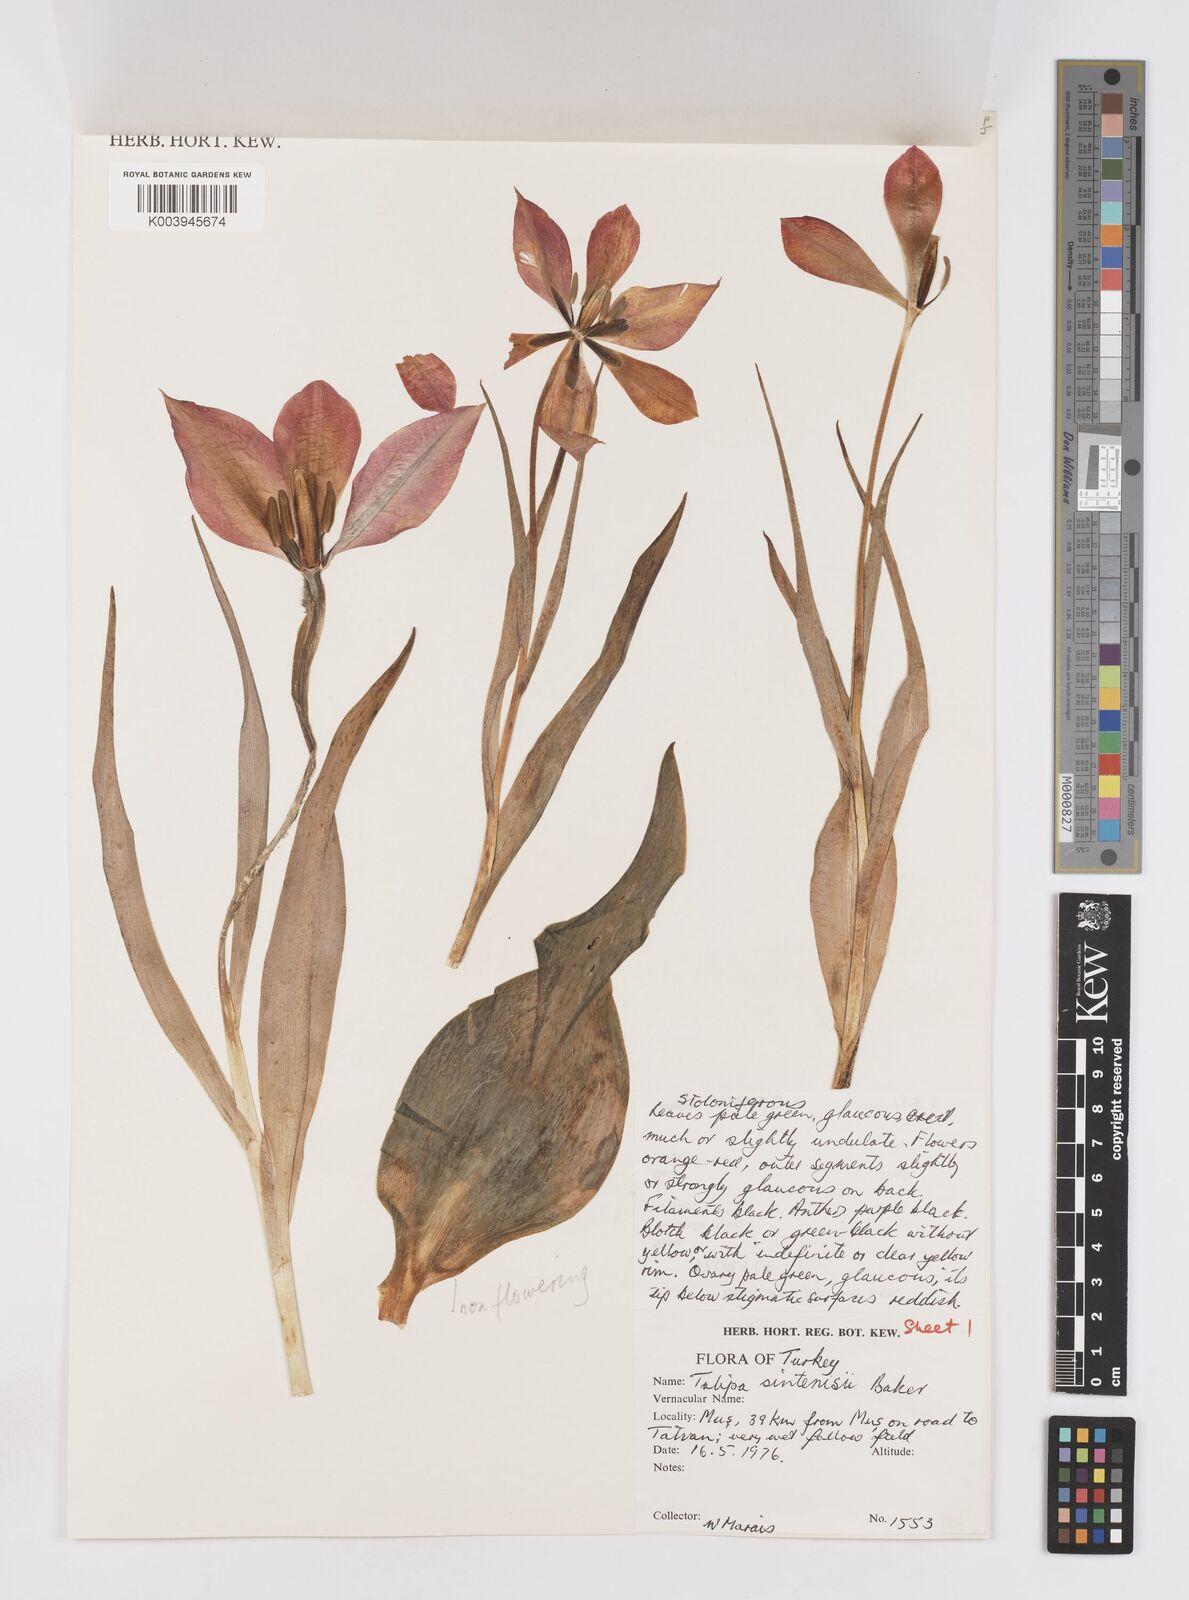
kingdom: Plantae
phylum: Tracheophyta
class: Liliopsida
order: Liliales
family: Liliaceae
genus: Tulipa
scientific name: Tulipa aleppensis
